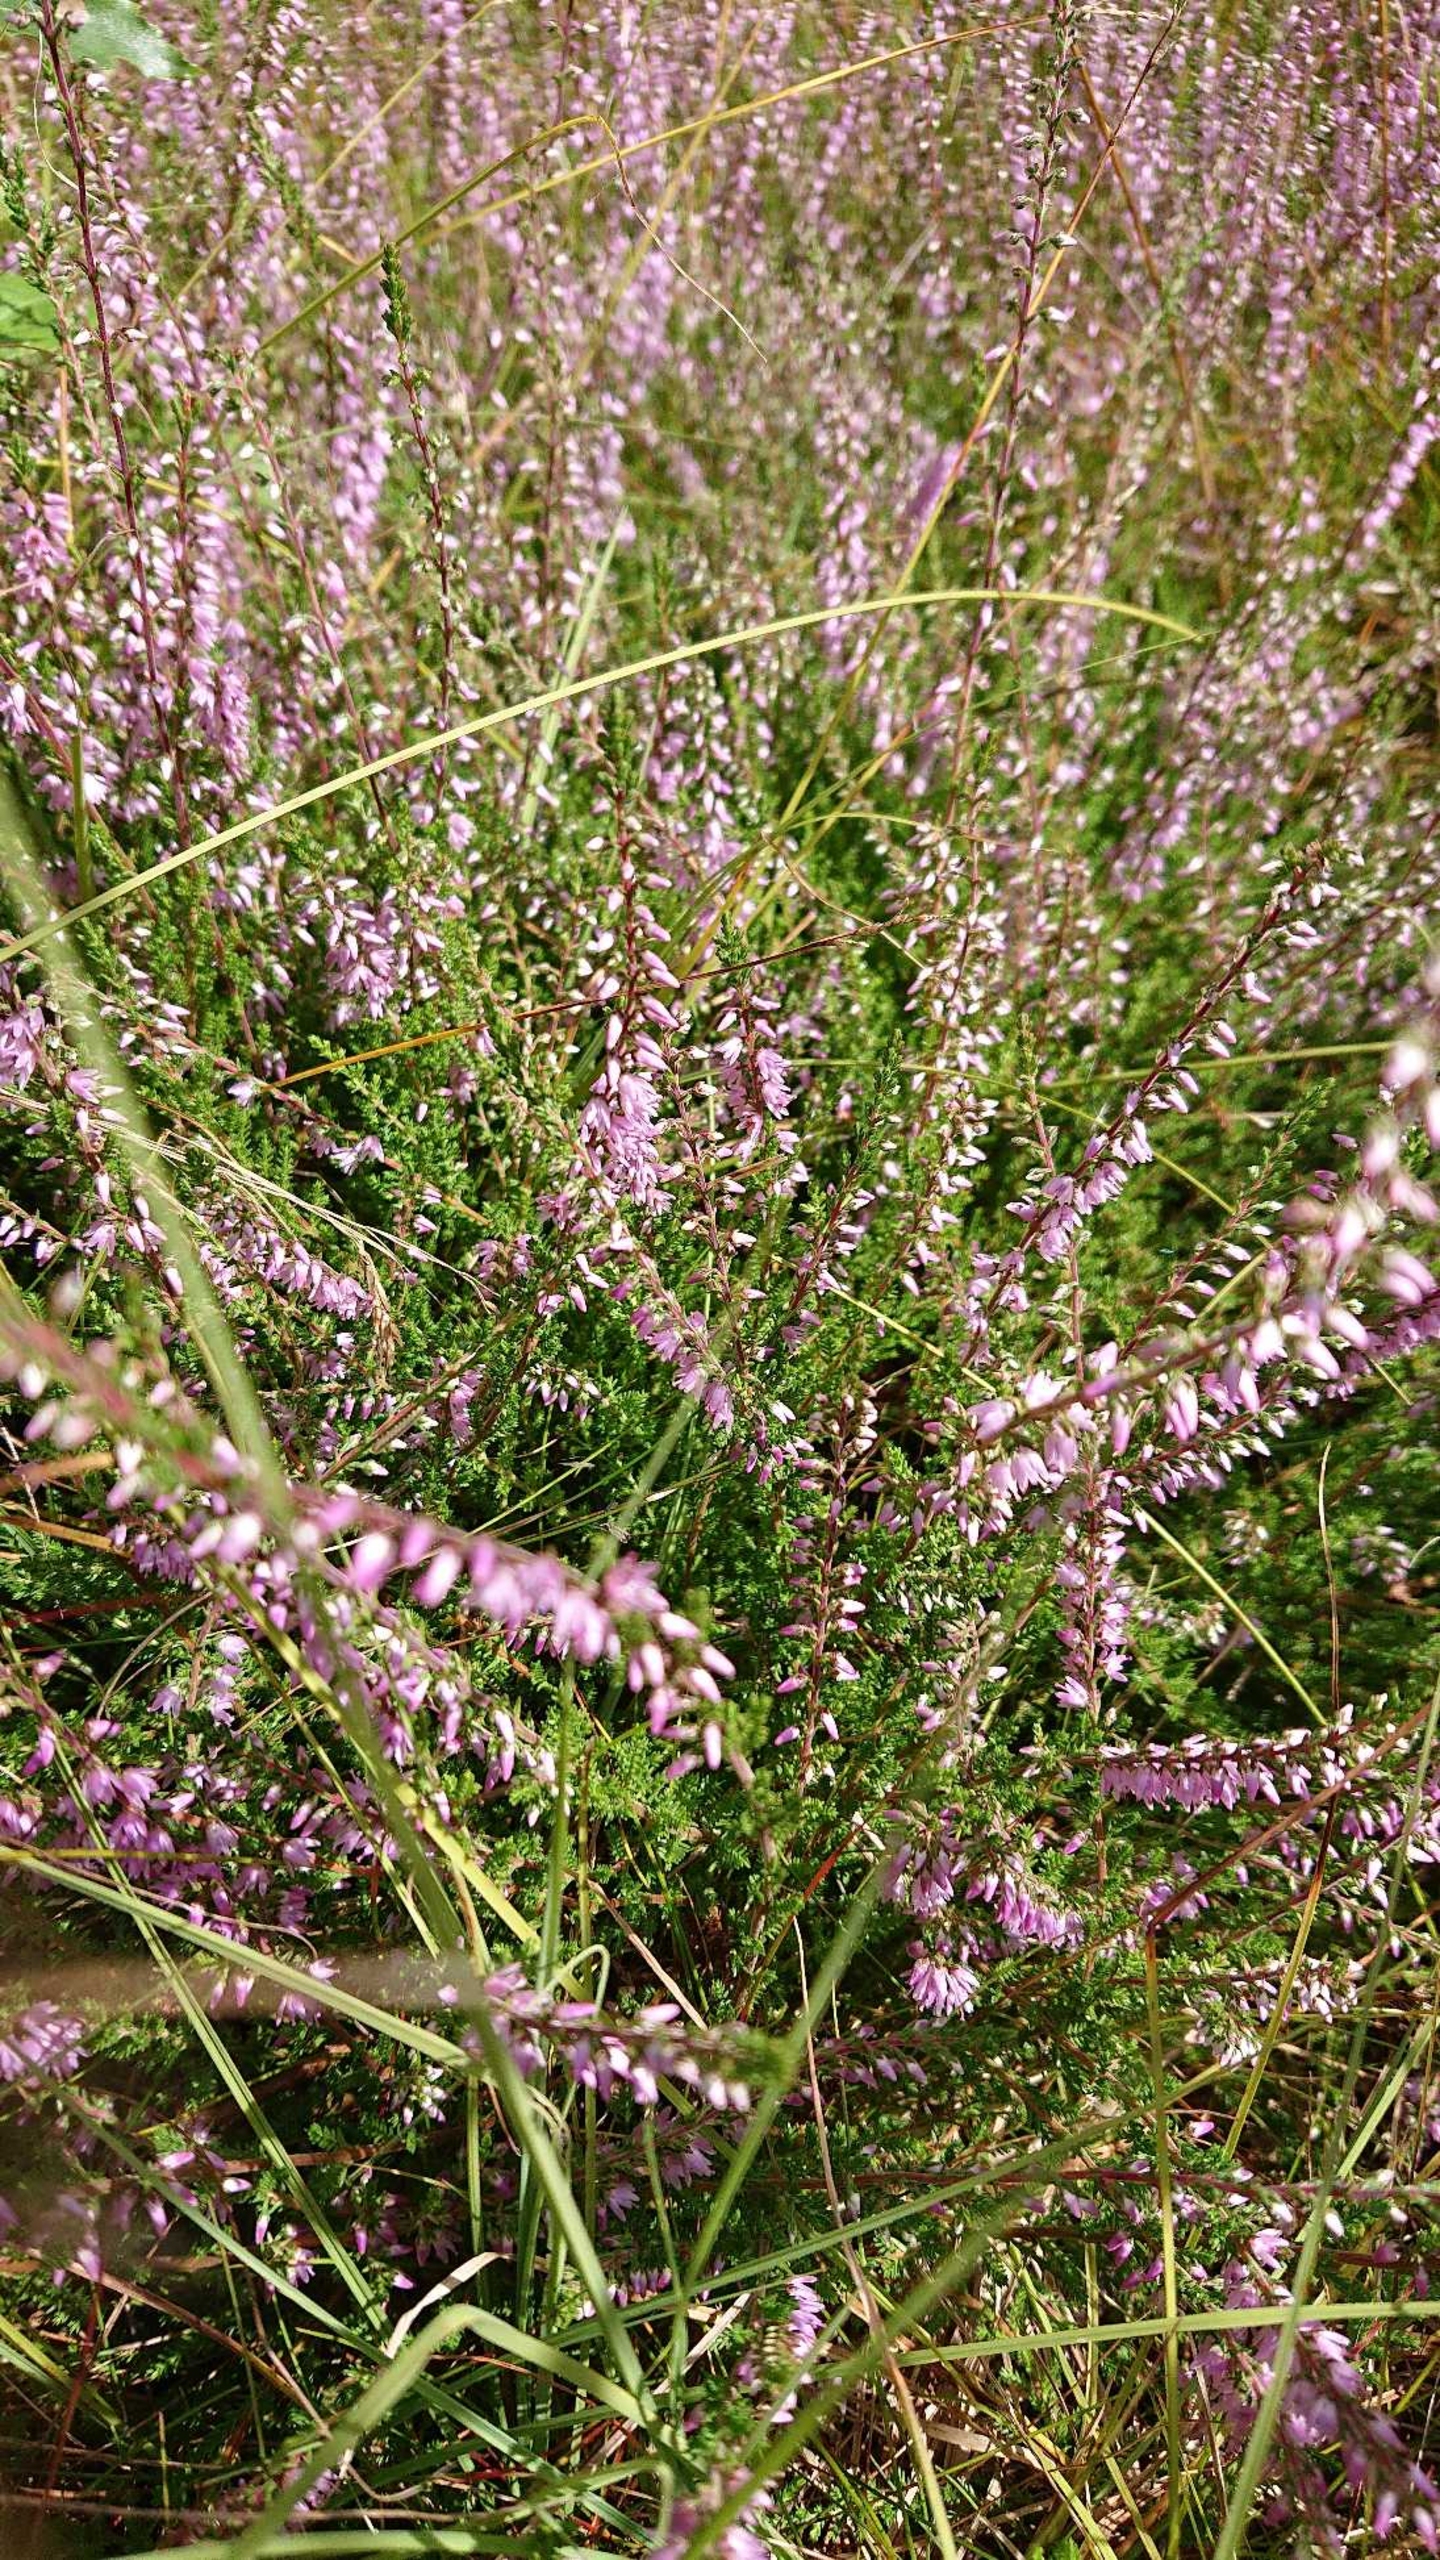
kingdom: Plantae
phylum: Tracheophyta
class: Magnoliopsida
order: Ericales
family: Ericaceae
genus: Calluna
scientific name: Calluna vulgaris
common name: Hedelyng
